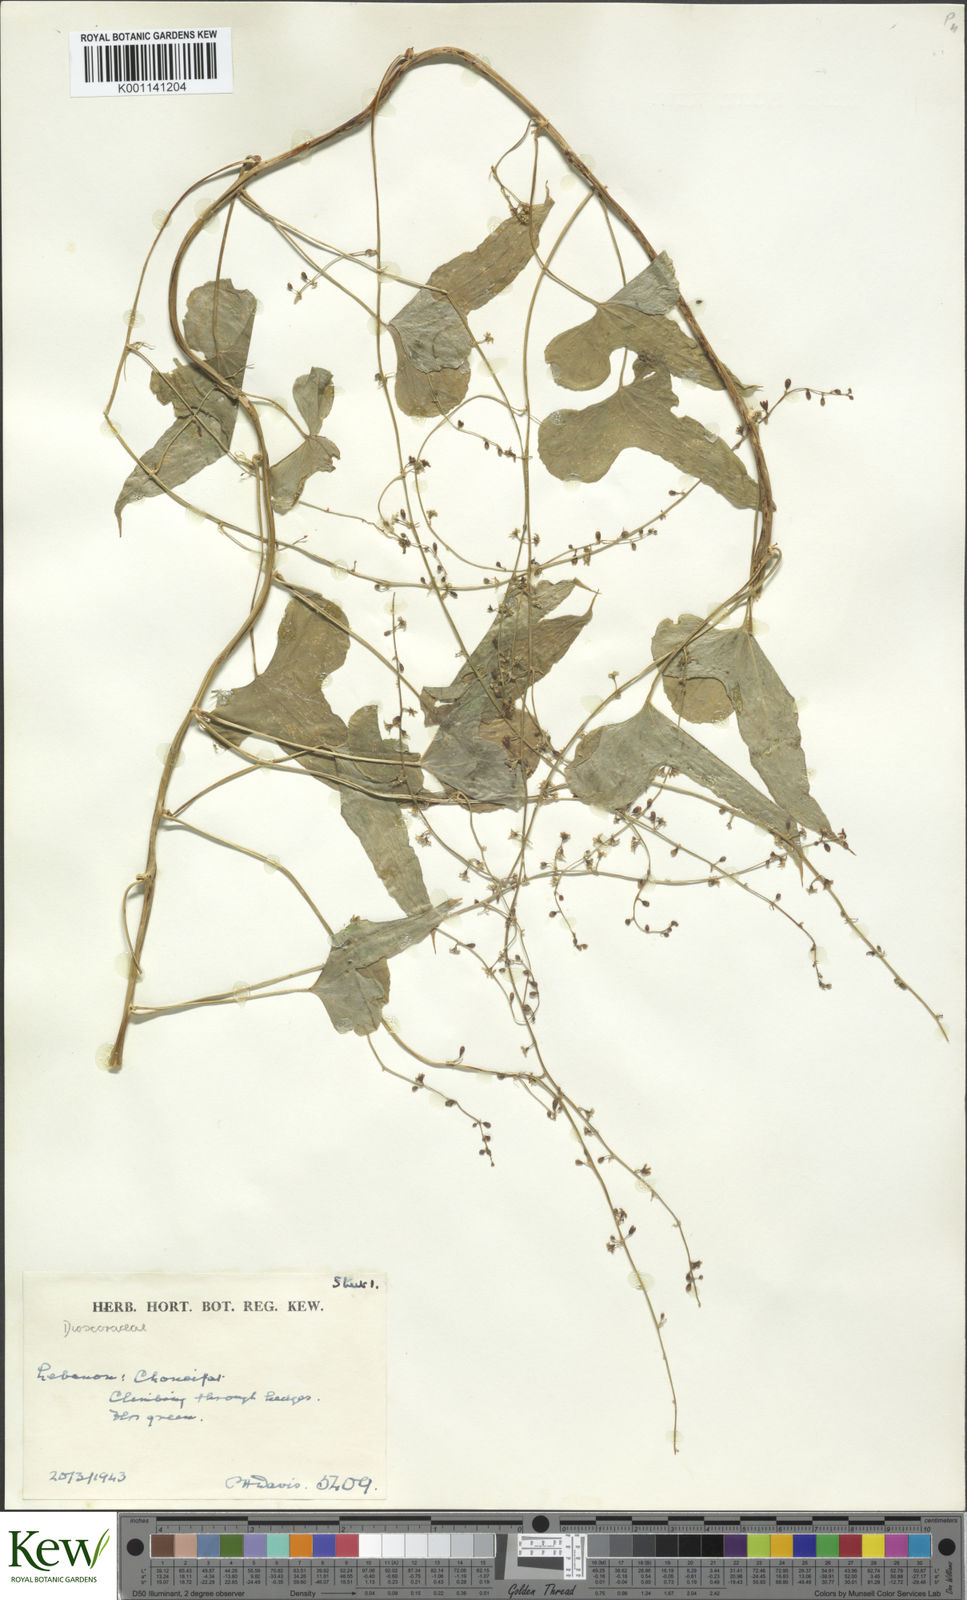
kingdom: Plantae
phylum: Tracheophyta
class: Liliopsida
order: Dioscoreales
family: Dioscoreaceae
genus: Dioscorea
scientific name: Dioscorea communis
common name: Black-bindweed
